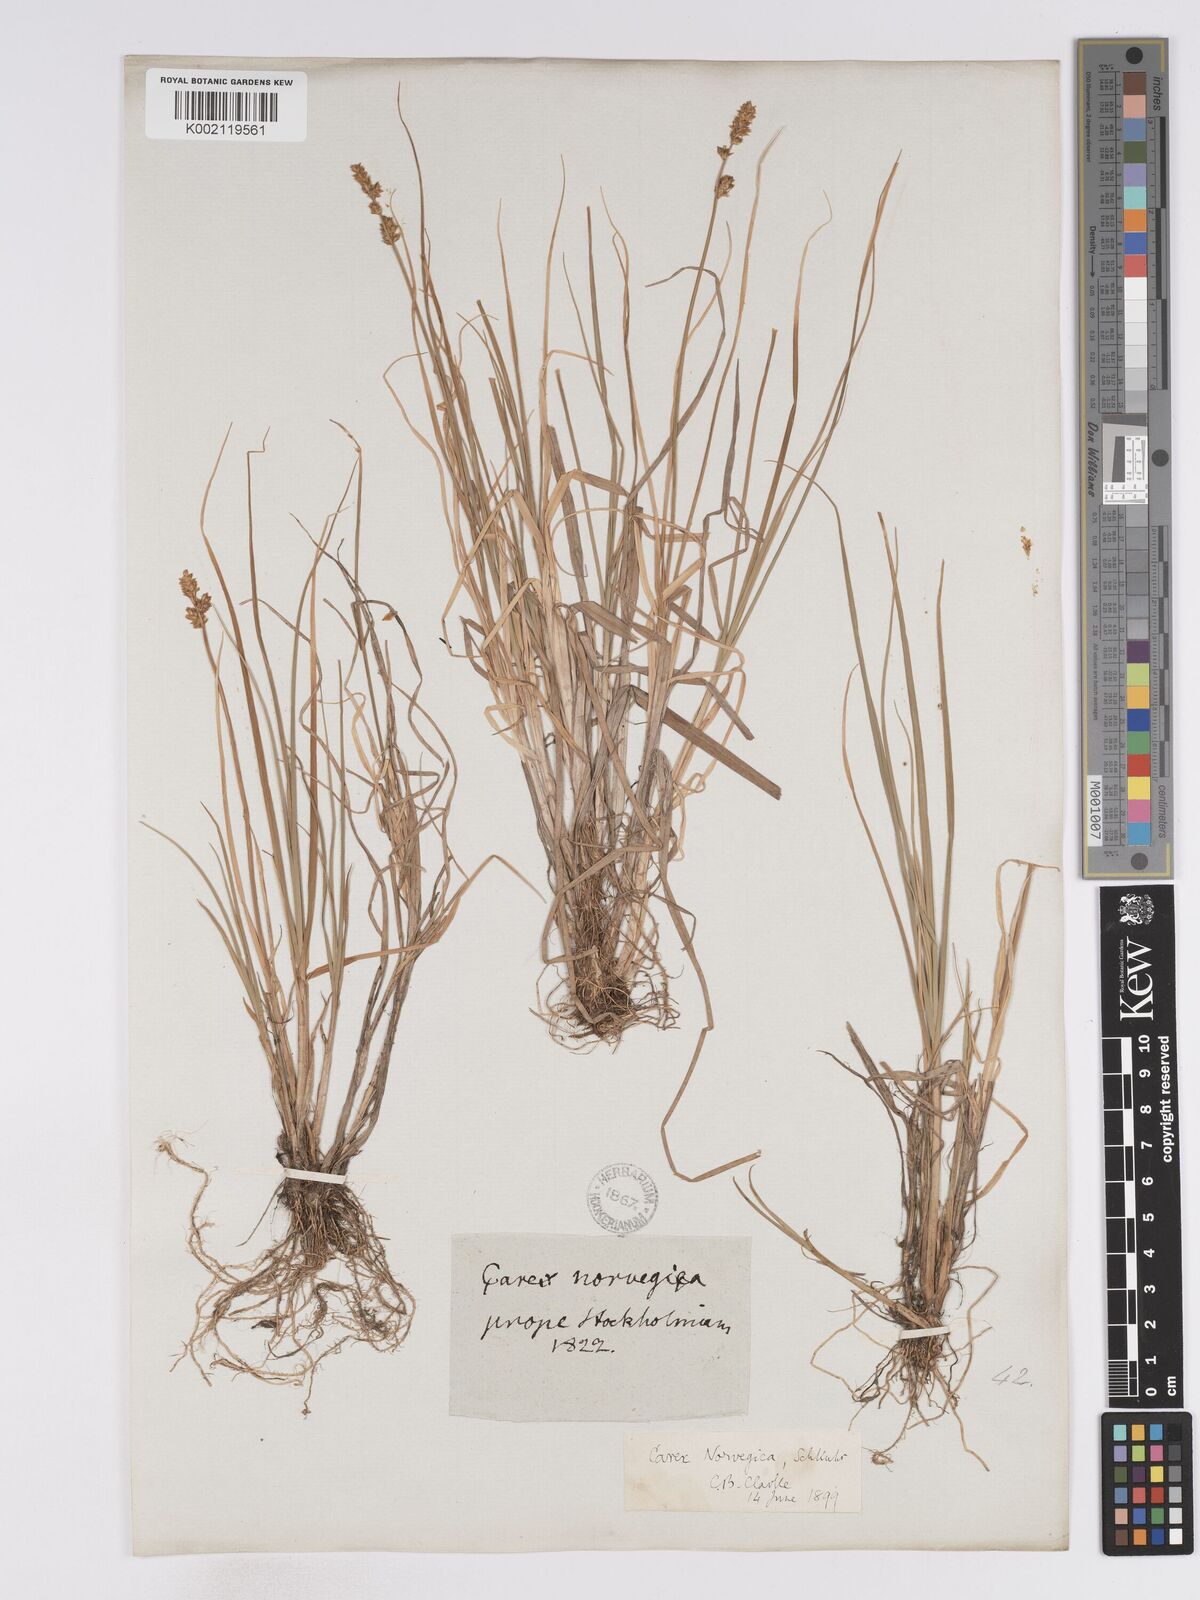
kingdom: Plantae
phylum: Tracheophyta
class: Liliopsida
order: Poales
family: Cyperaceae
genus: Carex
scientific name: Carex mackenziei
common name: Mackenzie's sedge
